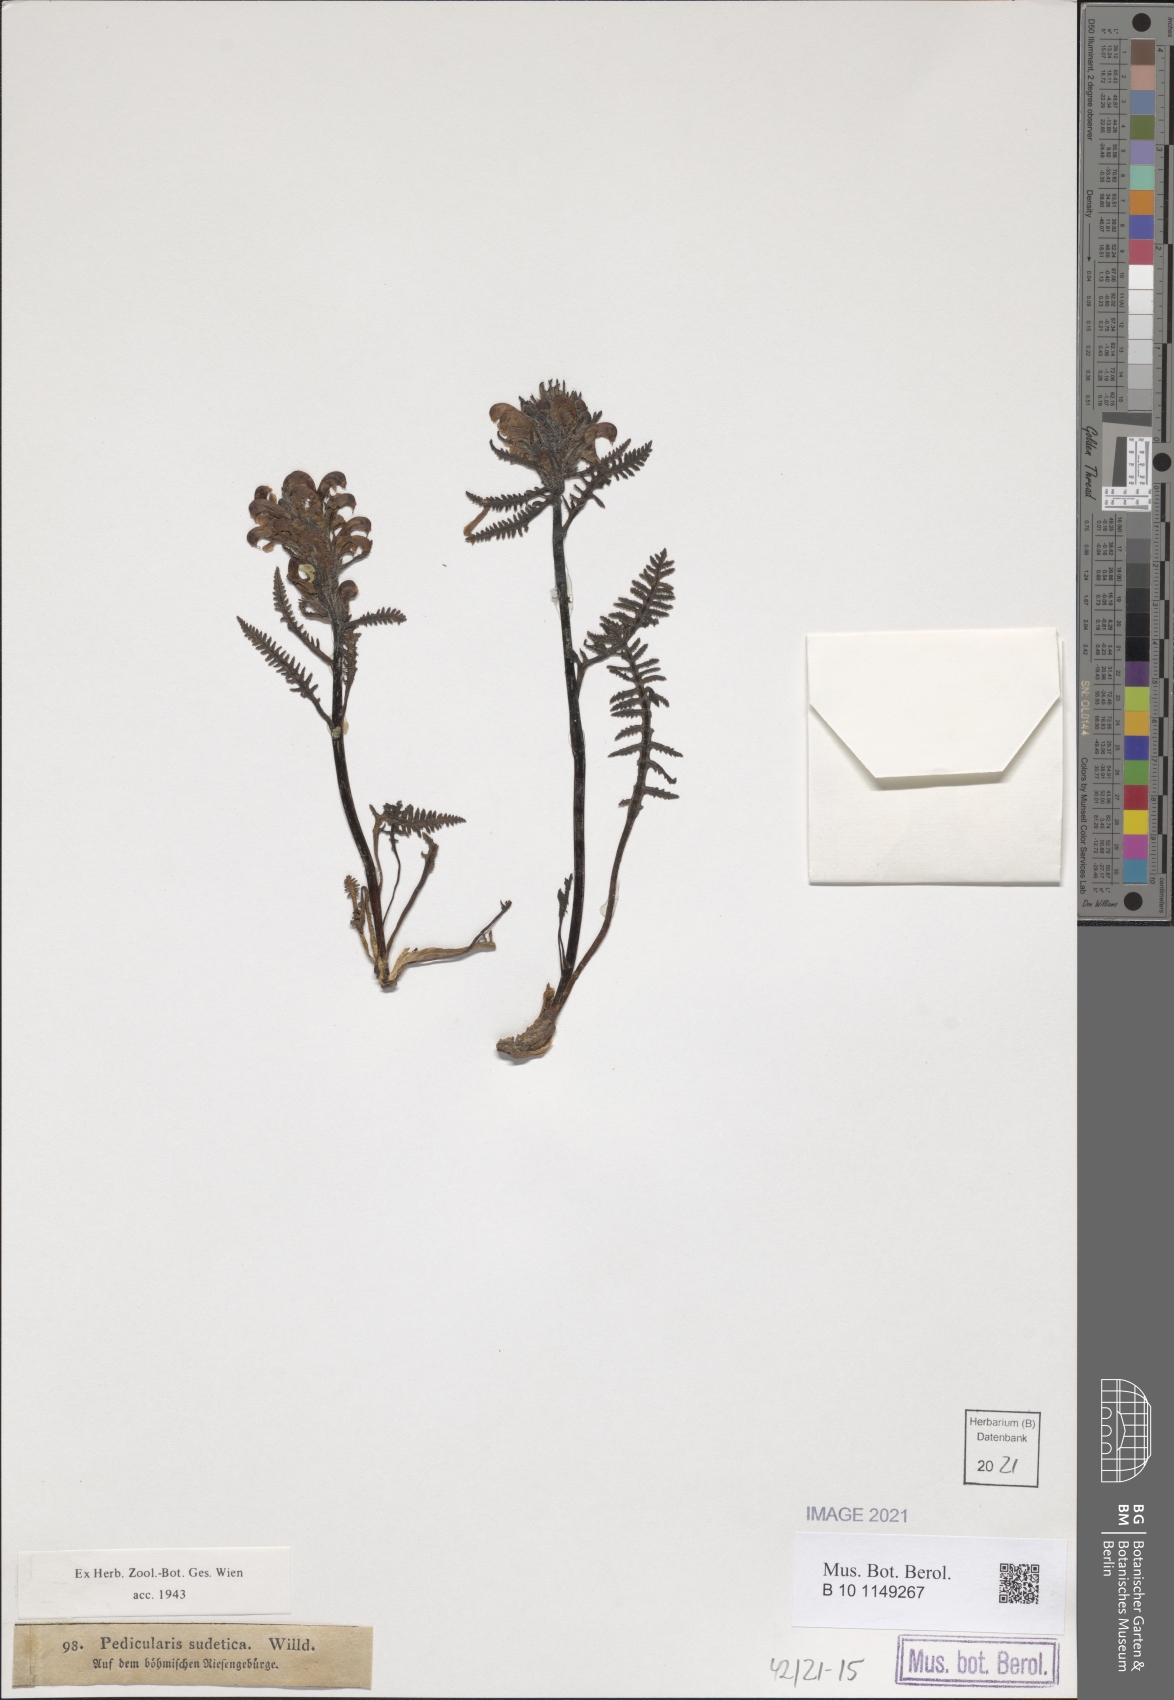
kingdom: Plantae
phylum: Tracheophyta
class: Magnoliopsida
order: Lamiales
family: Orobanchaceae
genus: Pedicularis
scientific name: Pedicularis sudetica
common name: Sudeten lousewort
